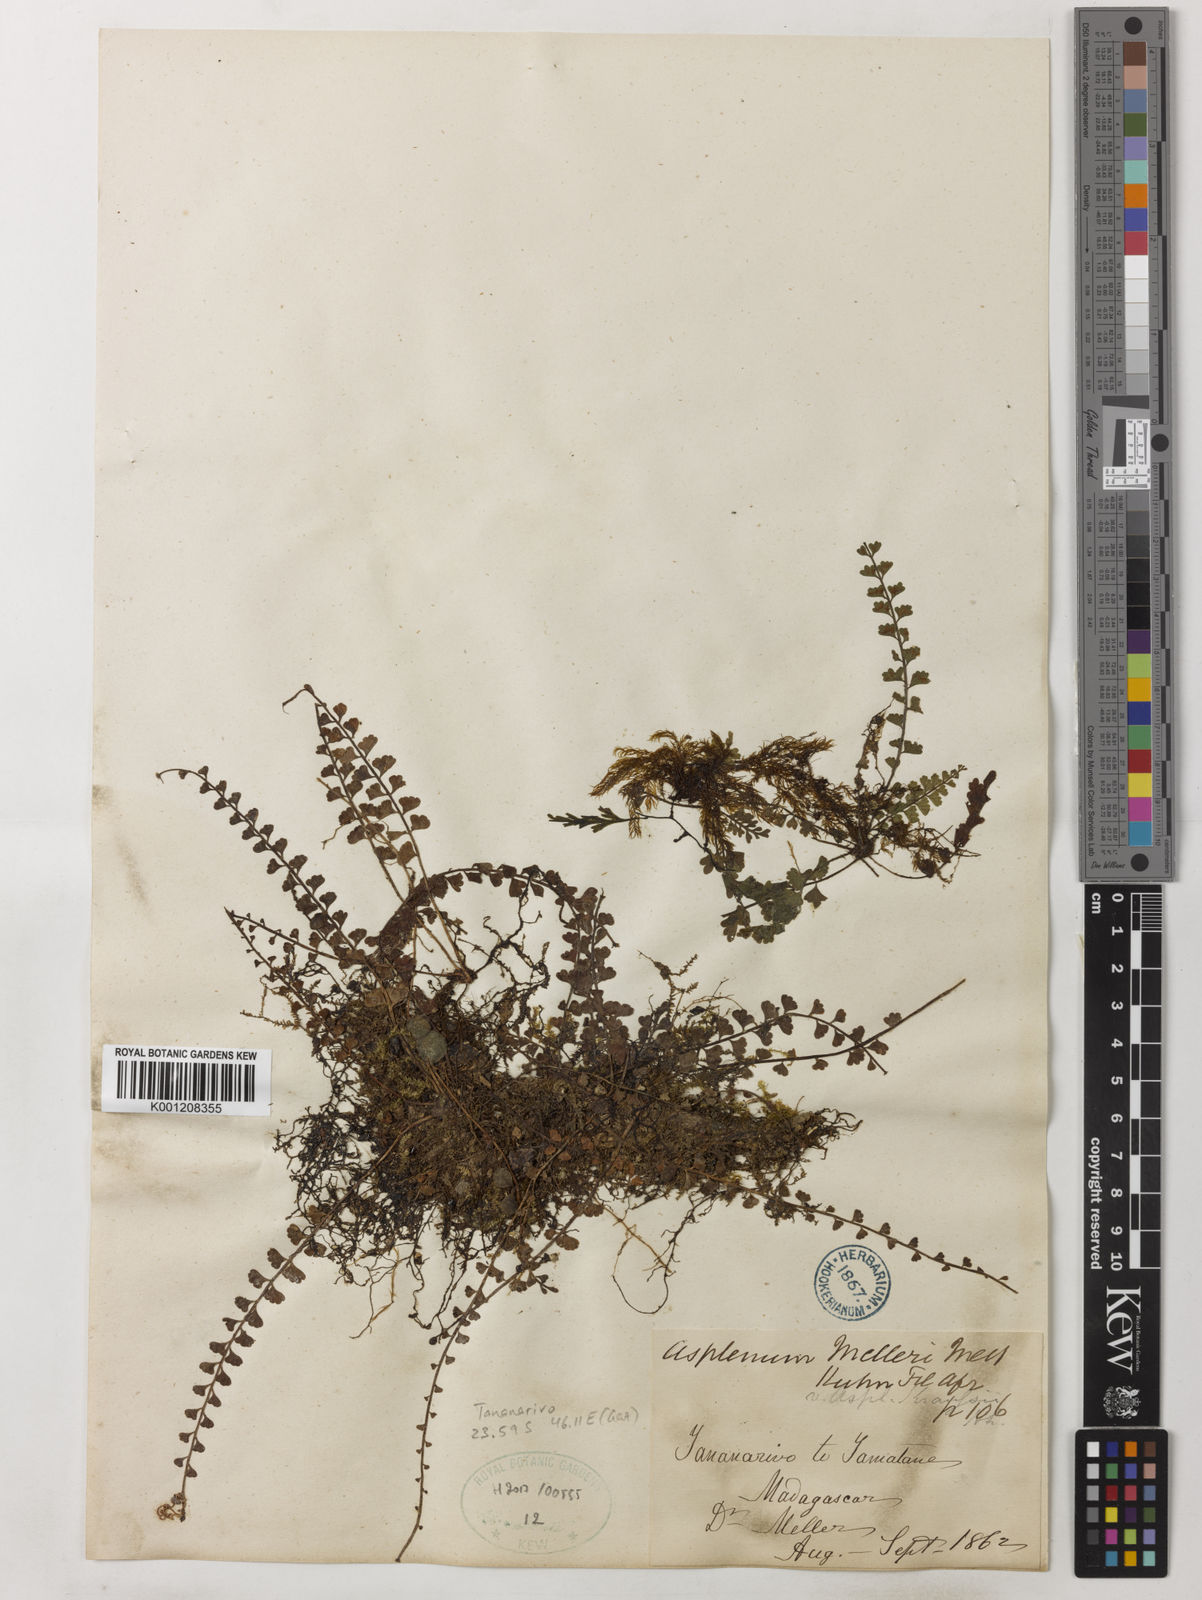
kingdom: Plantae
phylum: Tracheophyta
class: Polypodiopsida
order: Polypodiales
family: Aspleniaceae
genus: Asplenium
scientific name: Asplenium dregeanum
